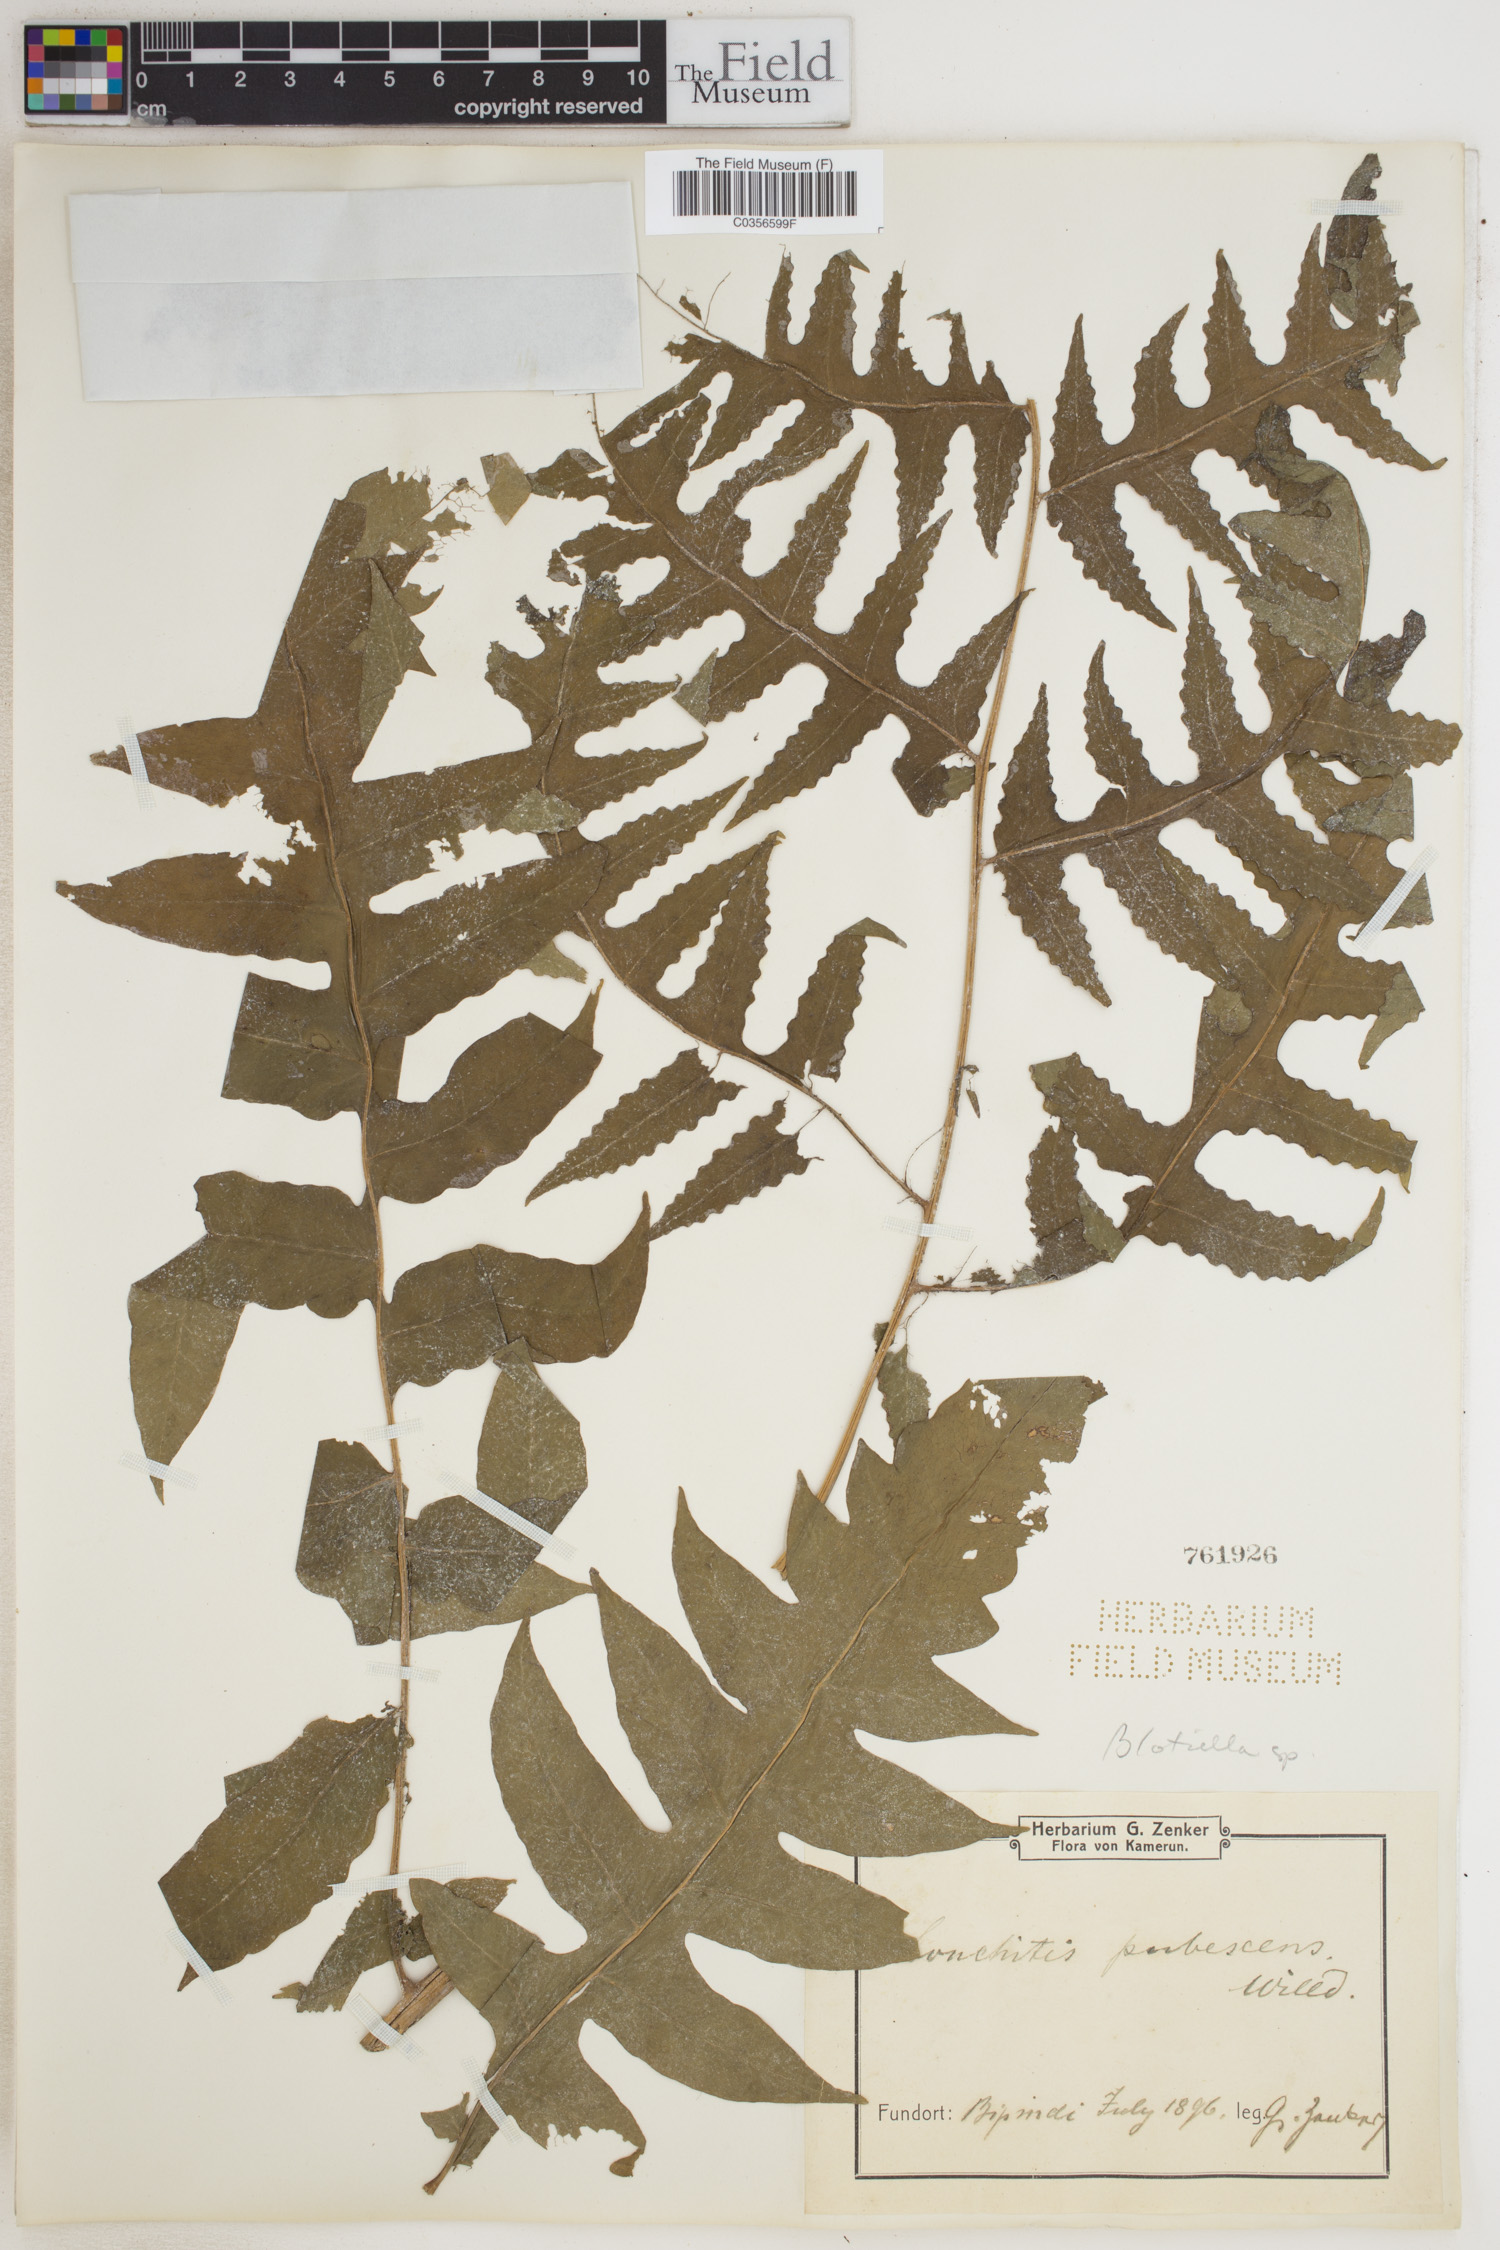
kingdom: Plantae
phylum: Tracheophyta
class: Polypodiopsida
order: Polypodiales
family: Dennstaedtiaceae
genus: Blotiella
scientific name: Blotiella natalensis
